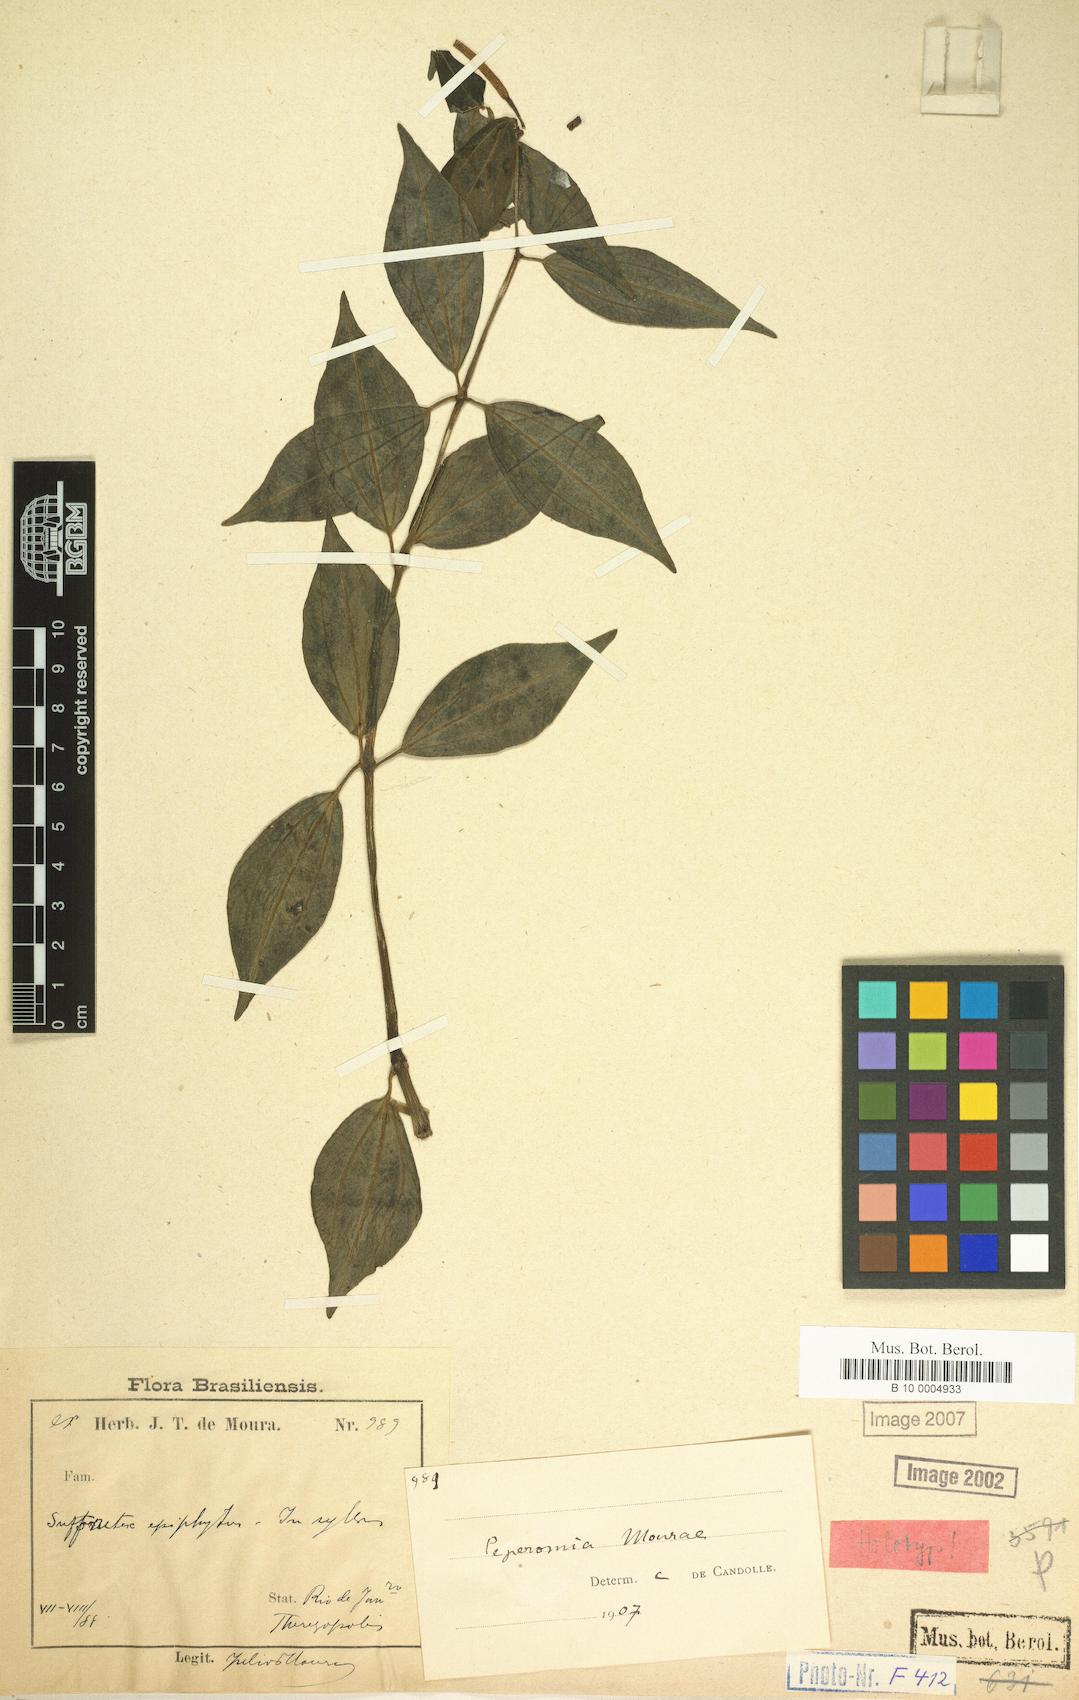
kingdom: Plantae
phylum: Tracheophyta
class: Magnoliopsida
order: Piperales
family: Piperaceae
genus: Peperomia
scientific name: Peperomia megapotamica
